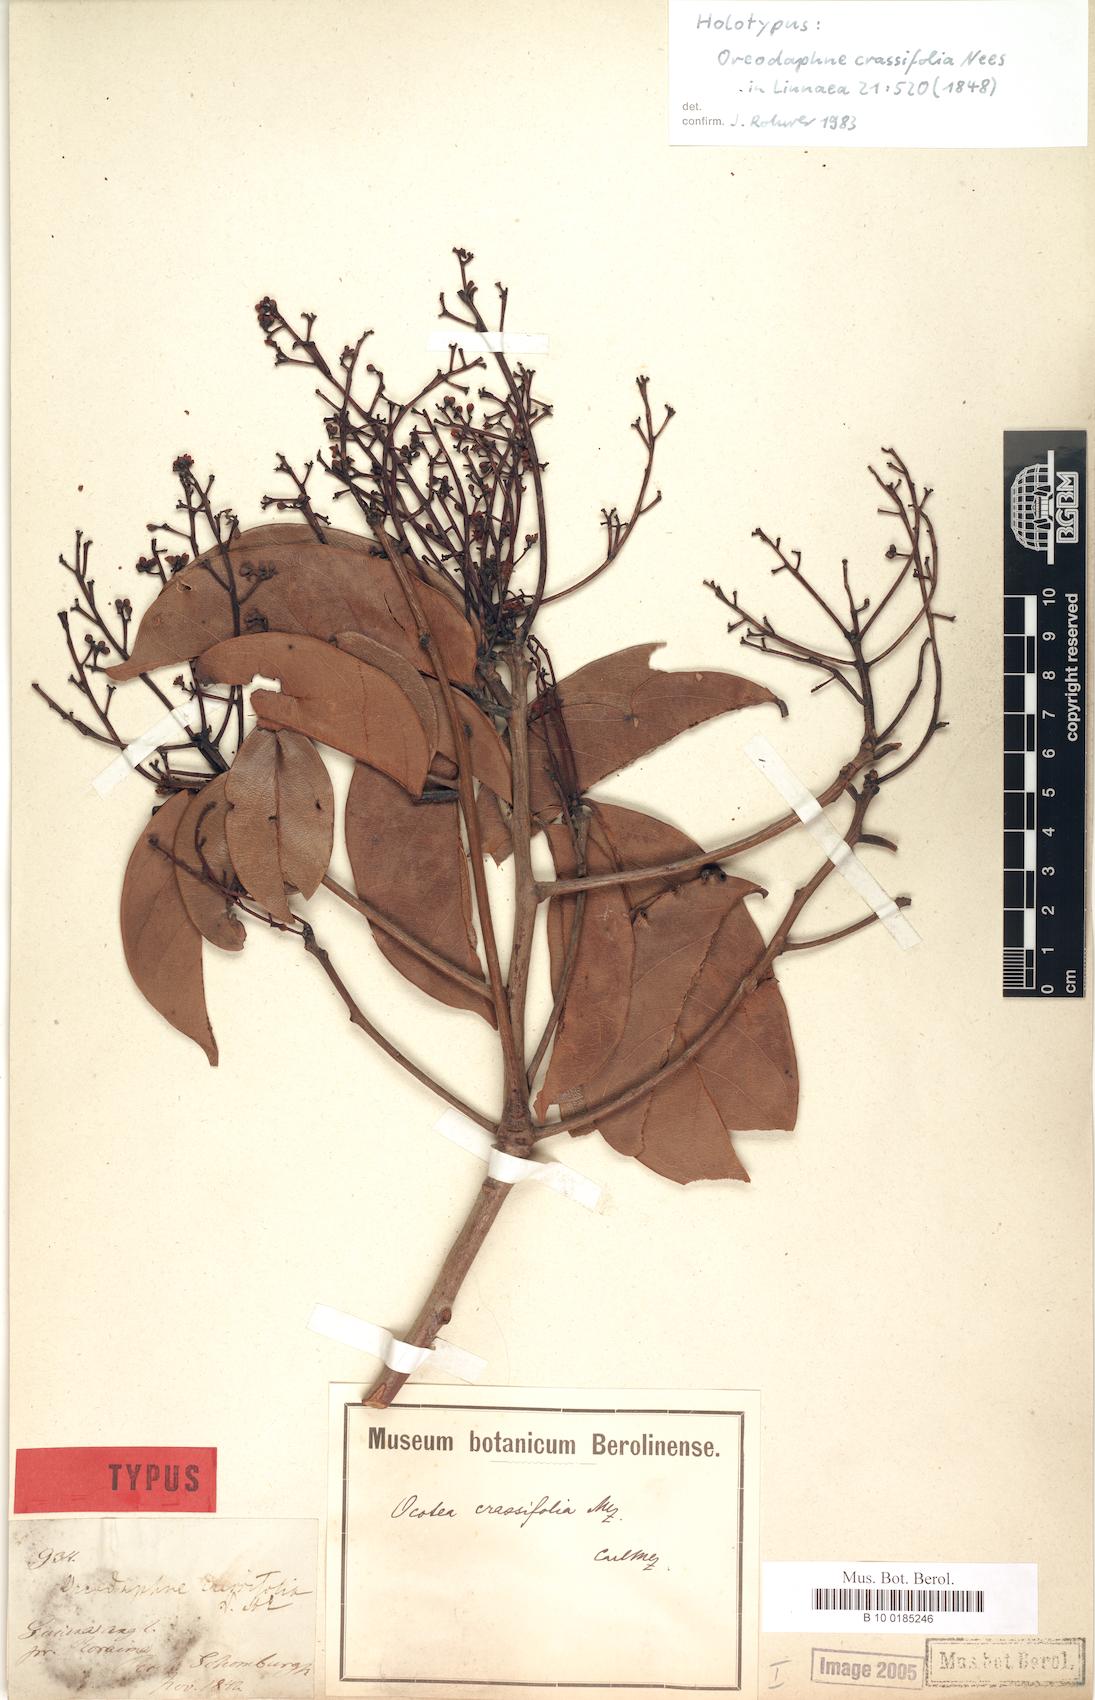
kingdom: Plantae
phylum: Tracheophyta
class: Magnoliopsida
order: Laurales
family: Lauraceae
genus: Ocotea
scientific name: Ocotea crassifolia
